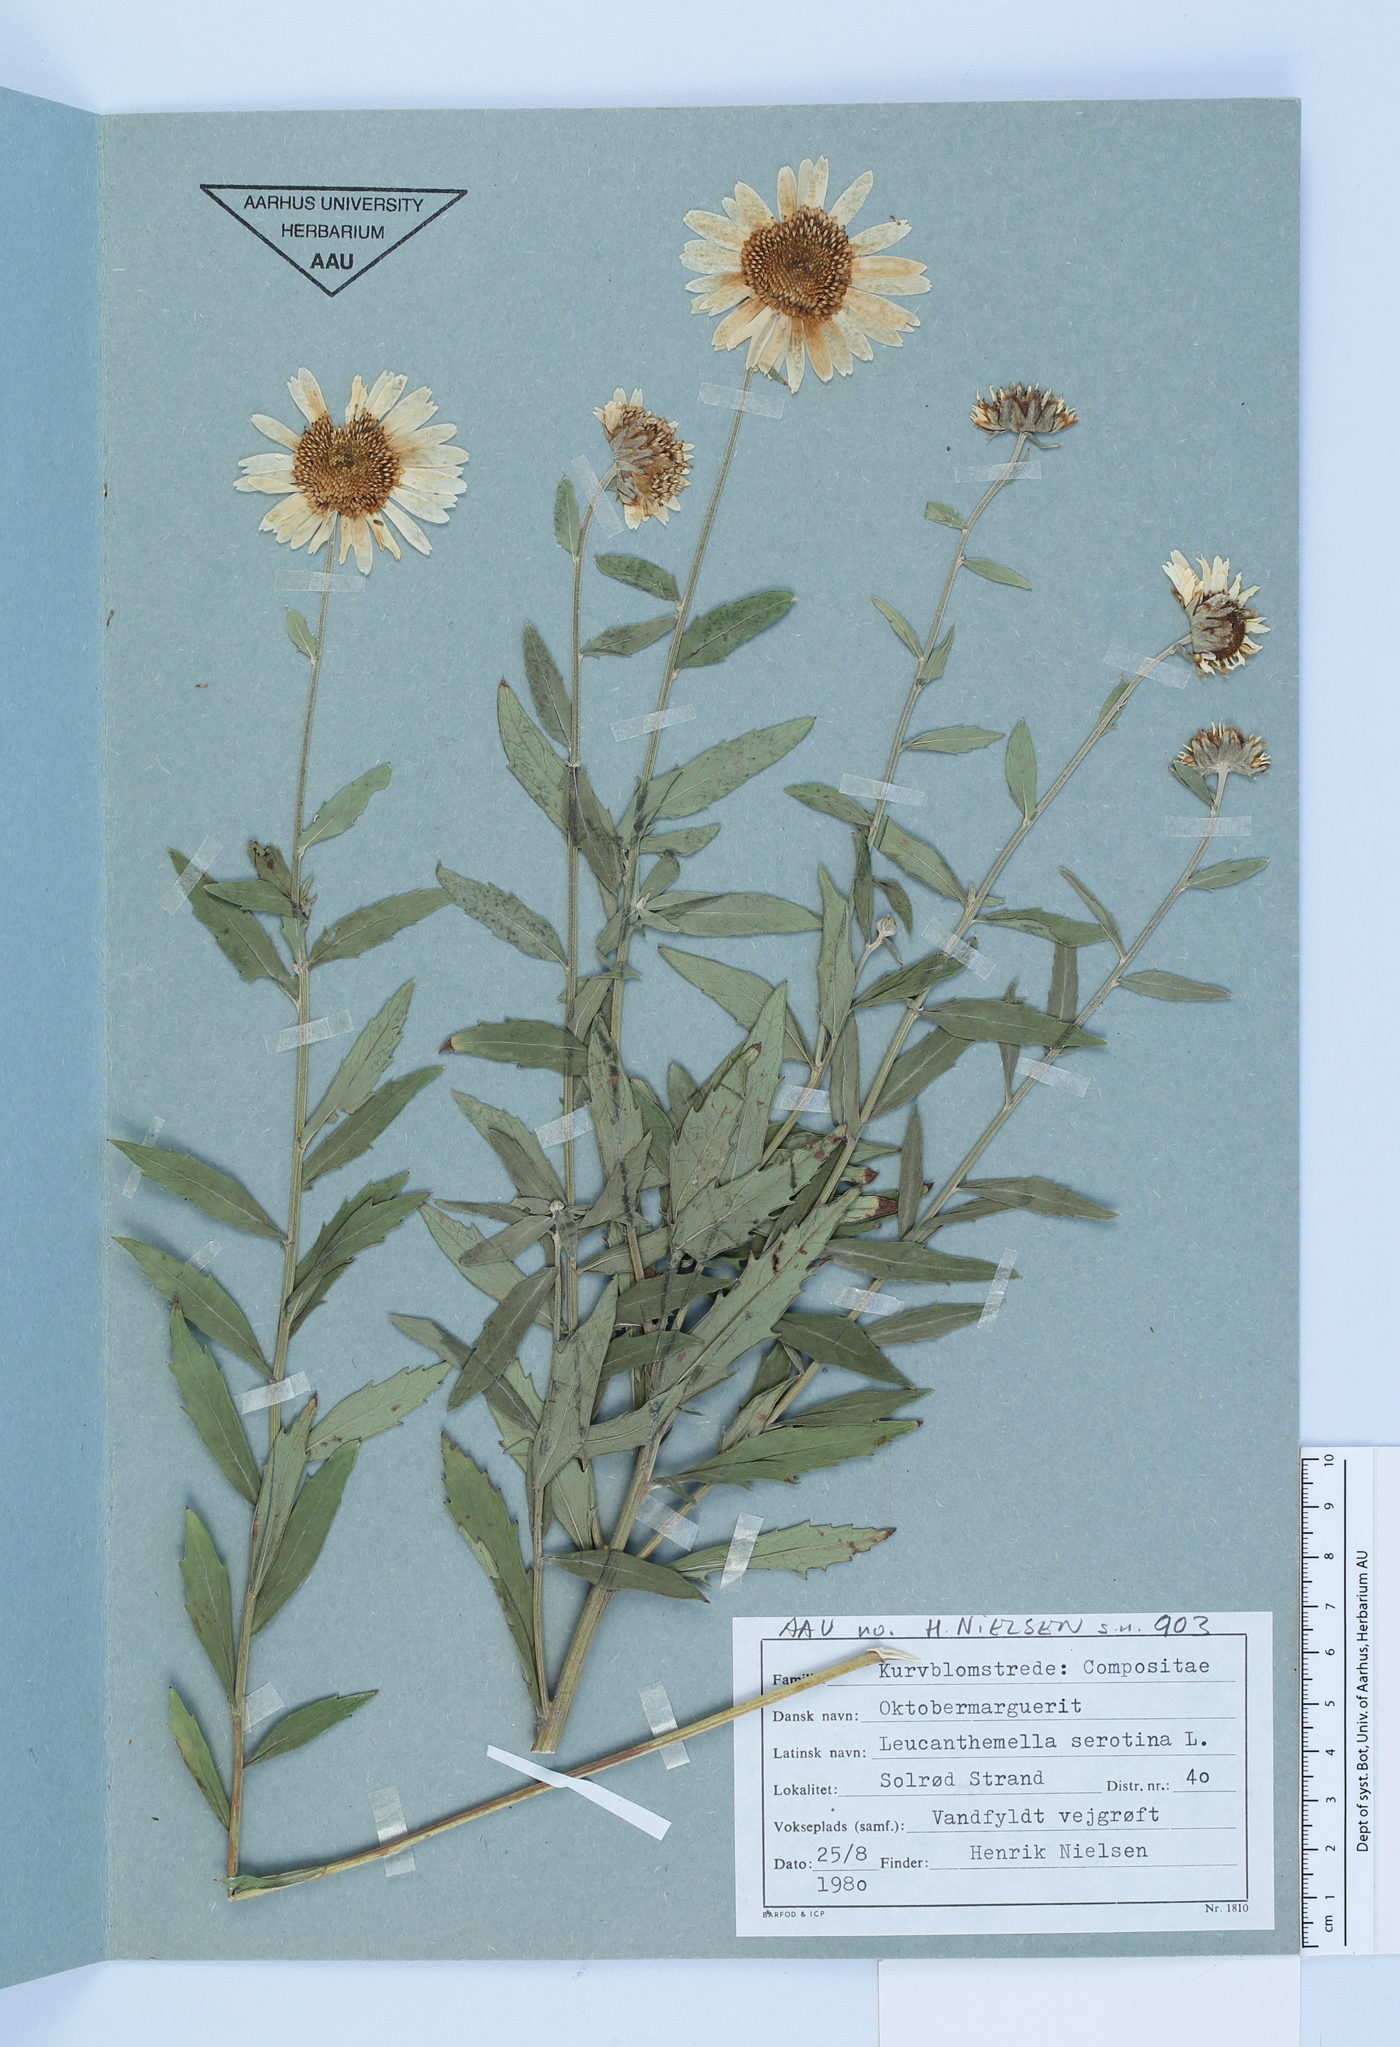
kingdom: Plantae
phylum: Tracheophyta
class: Magnoliopsida
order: Asterales
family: Asteraceae
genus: Leucanthemella
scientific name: Leucanthemella serotina
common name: Autumn oxeye
